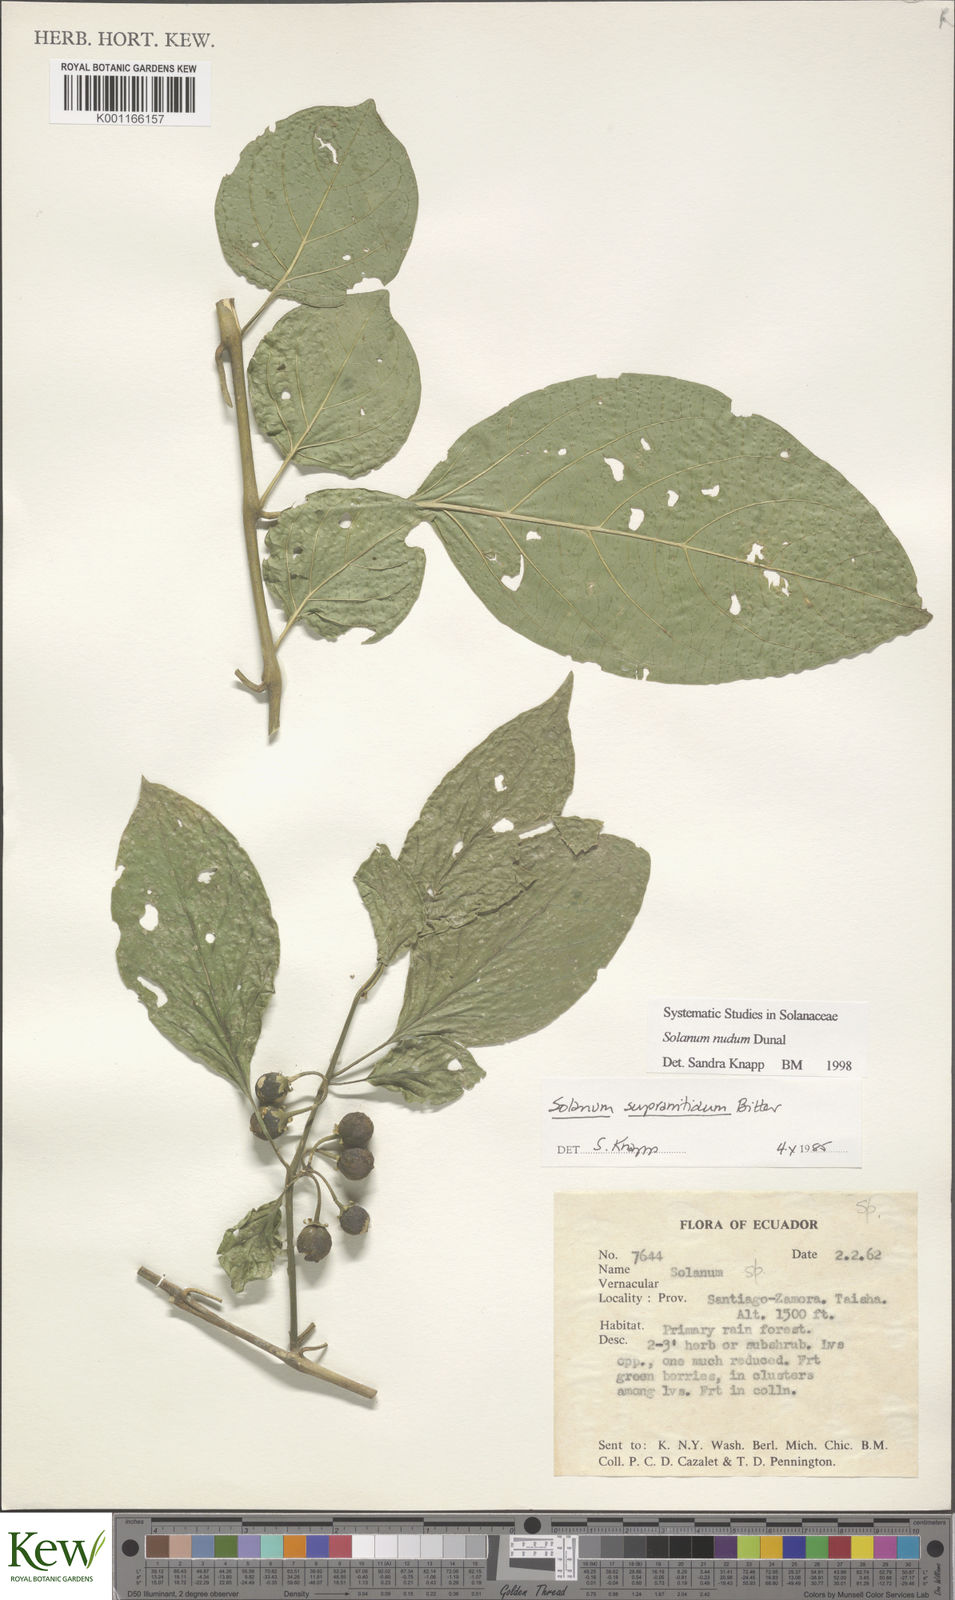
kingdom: Plantae
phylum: Tracheophyta
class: Magnoliopsida
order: Solanales
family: Solanaceae
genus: Solanum
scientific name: Solanum nudum
